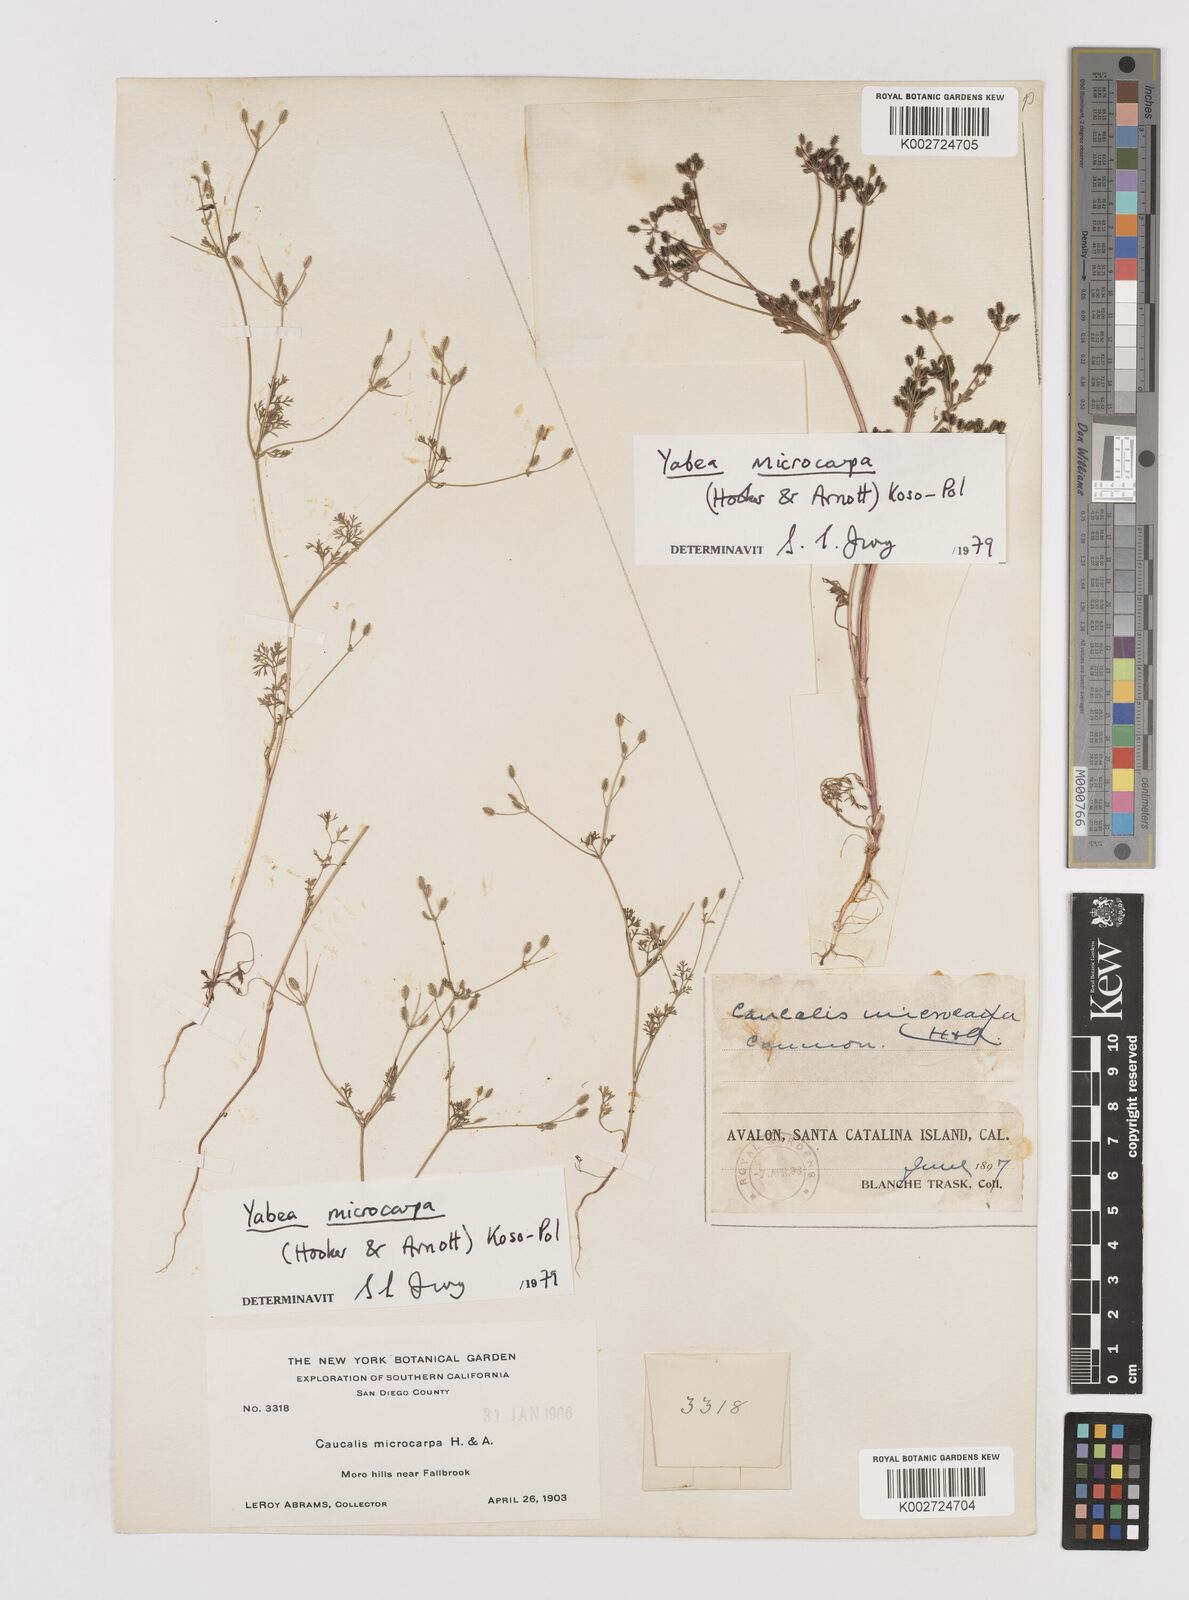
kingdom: Plantae
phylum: Tracheophyta
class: Magnoliopsida
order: Apiales
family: Apiaceae
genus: Yabea
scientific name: Yabea microcarpa
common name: False carrot
